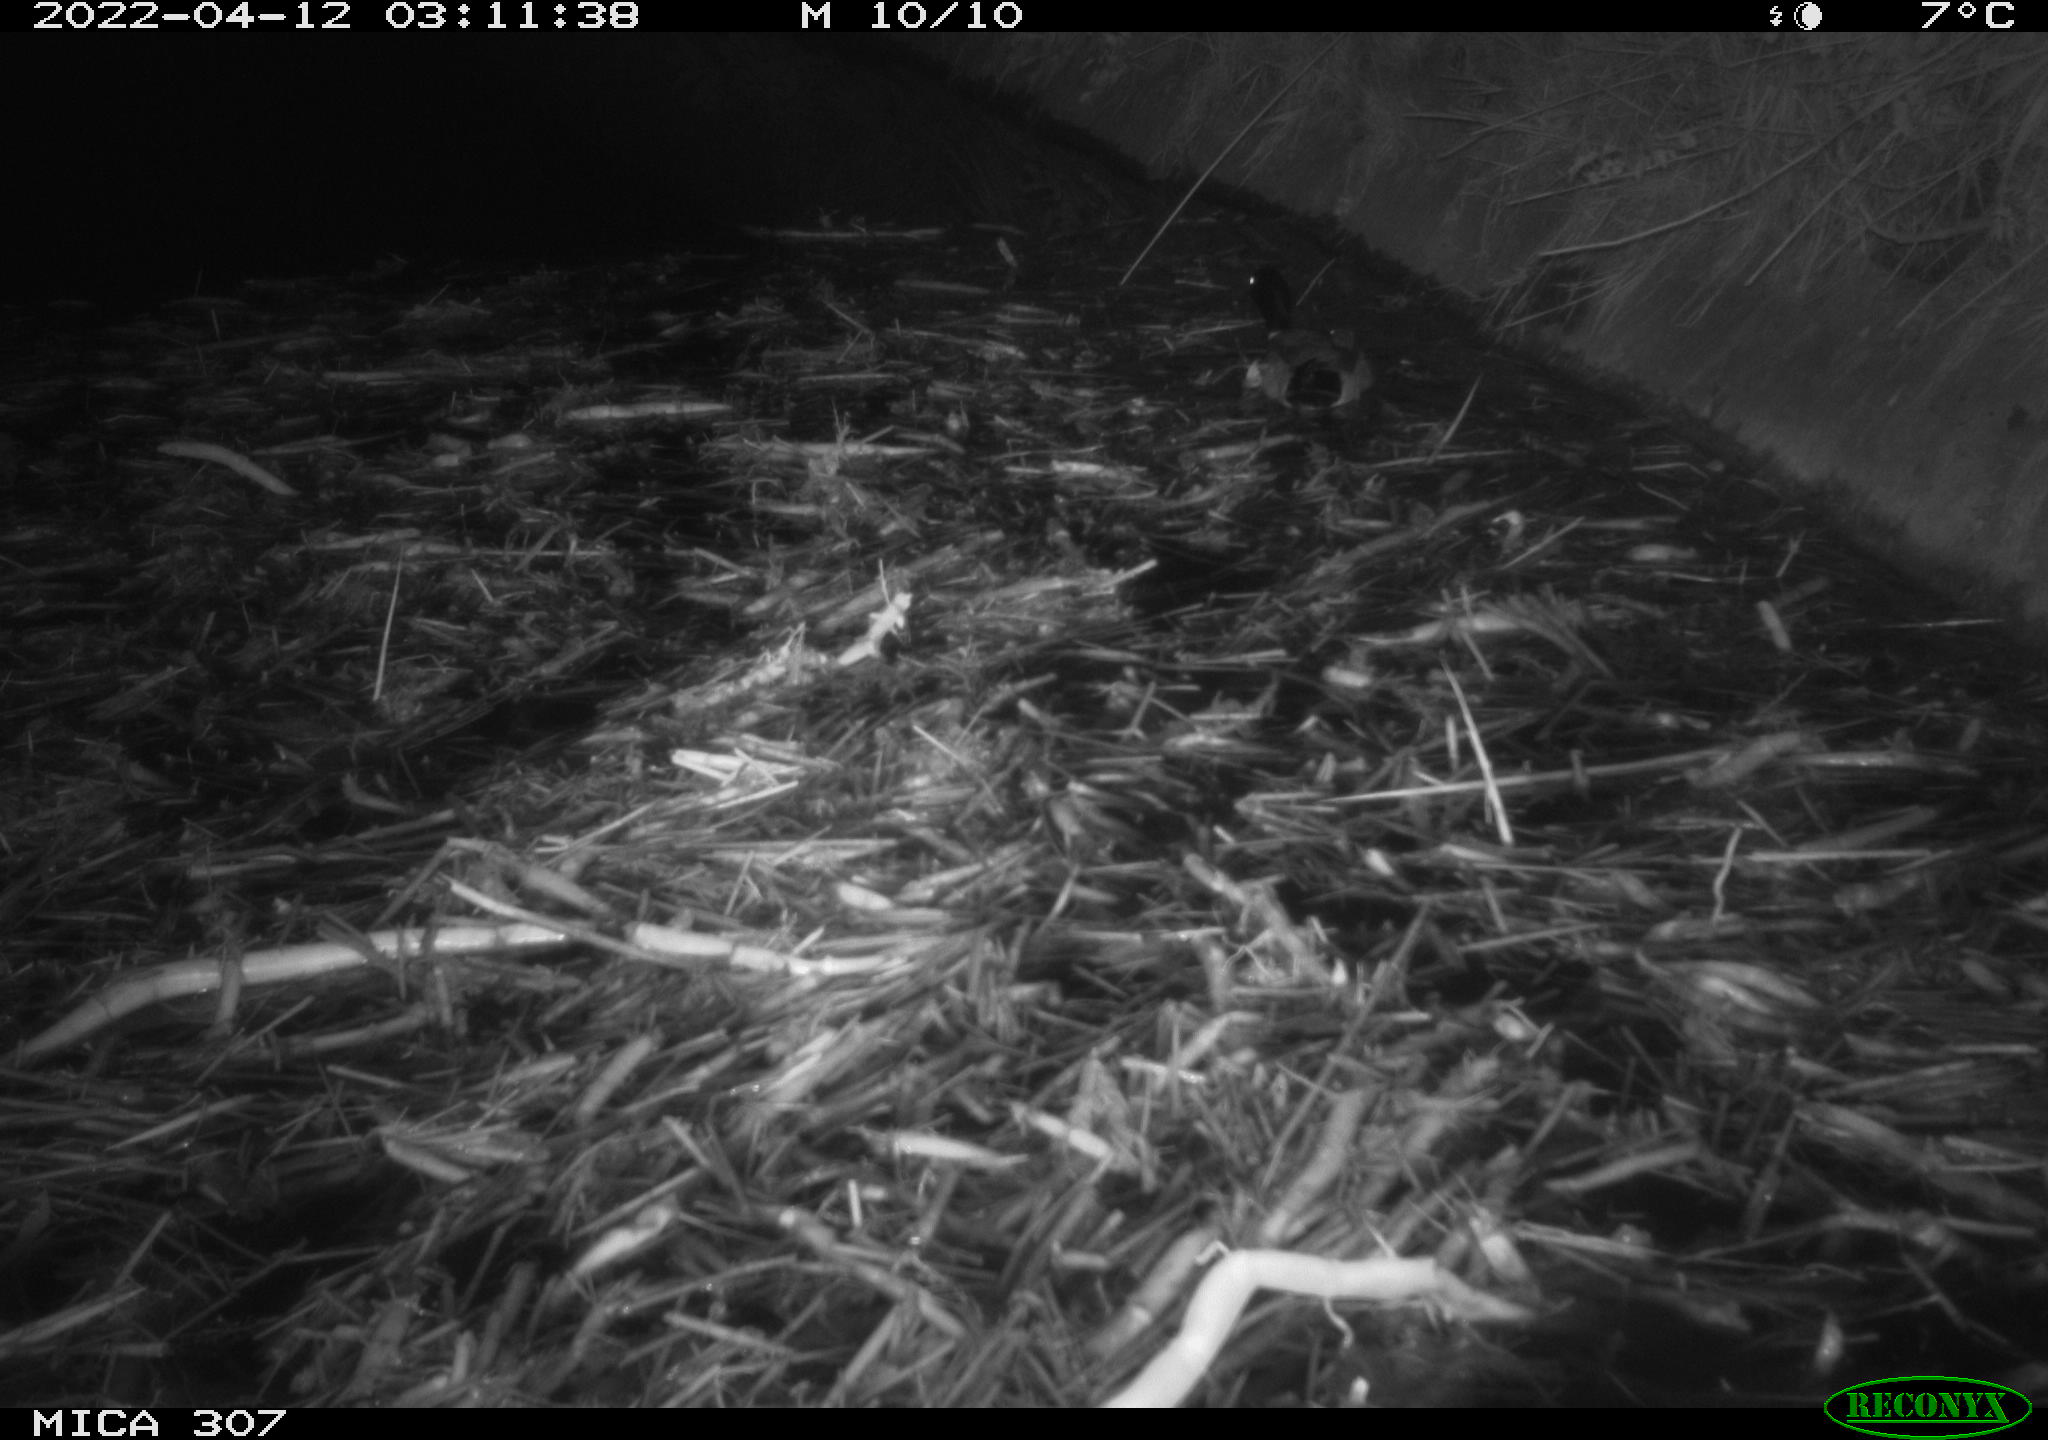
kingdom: Animalia
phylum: Chordata
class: Aves
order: Anseriformes
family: Anatidae
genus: Anas
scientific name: Anas platyrhynchos
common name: Mallard
